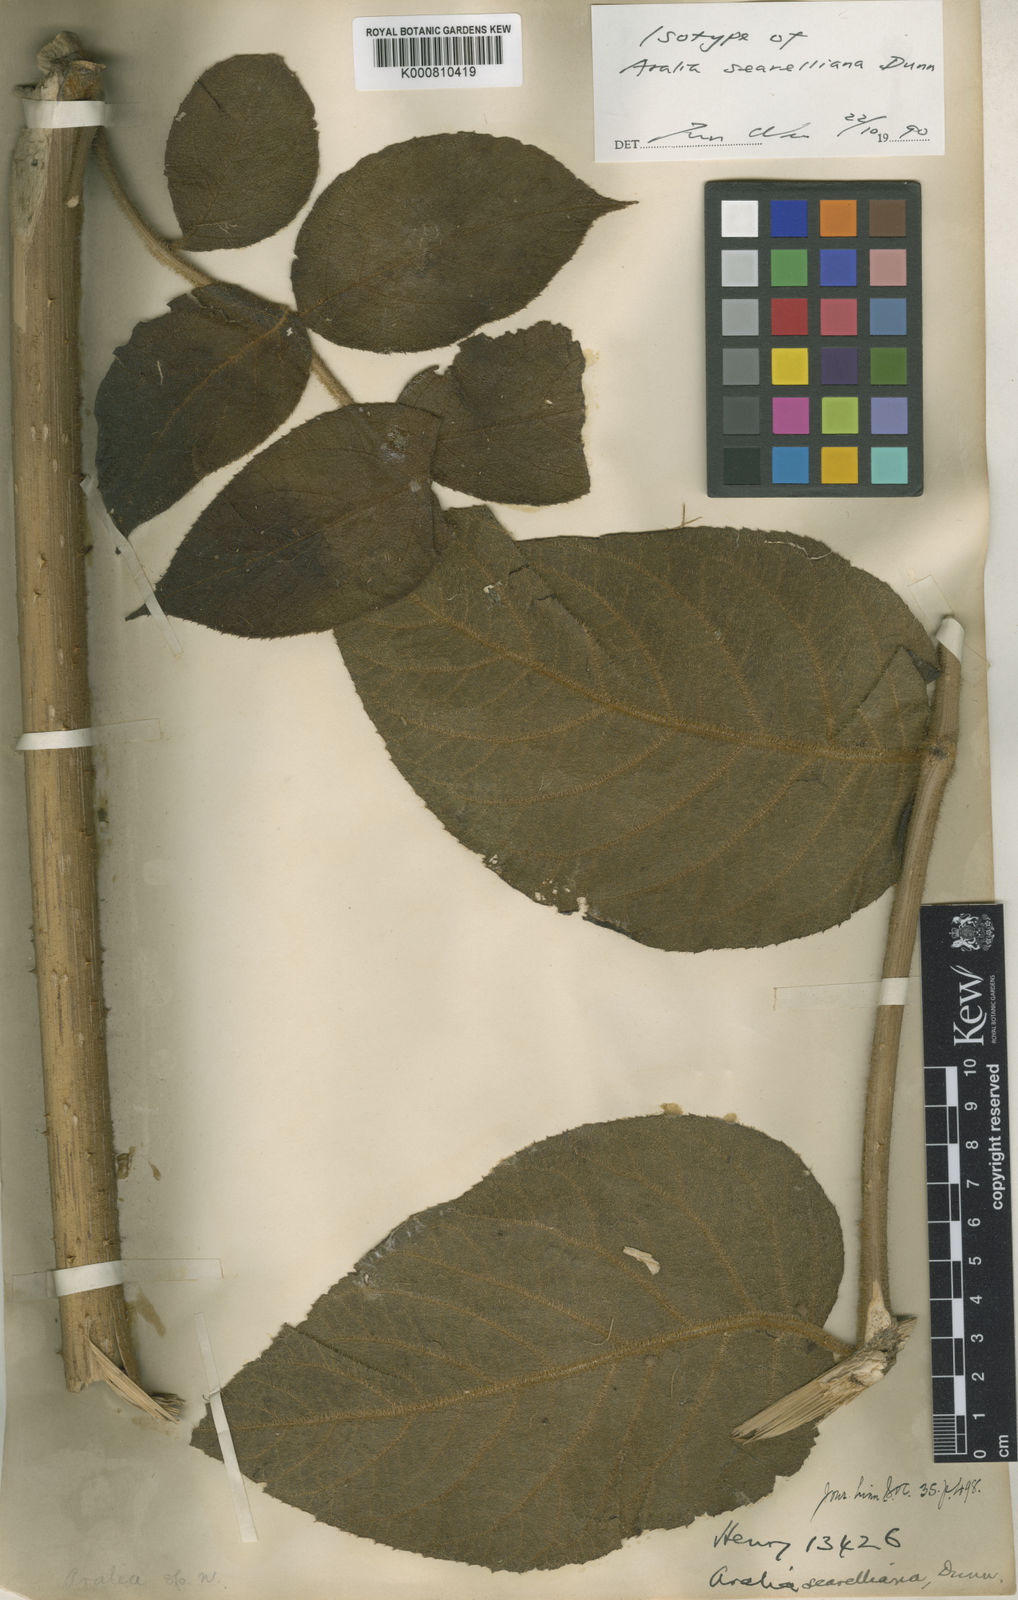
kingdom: Plantae
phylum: Tracheophyta
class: Magnoliopsida
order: Apiales
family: Araliaceae
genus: Aralia
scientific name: Aralia searelliana
